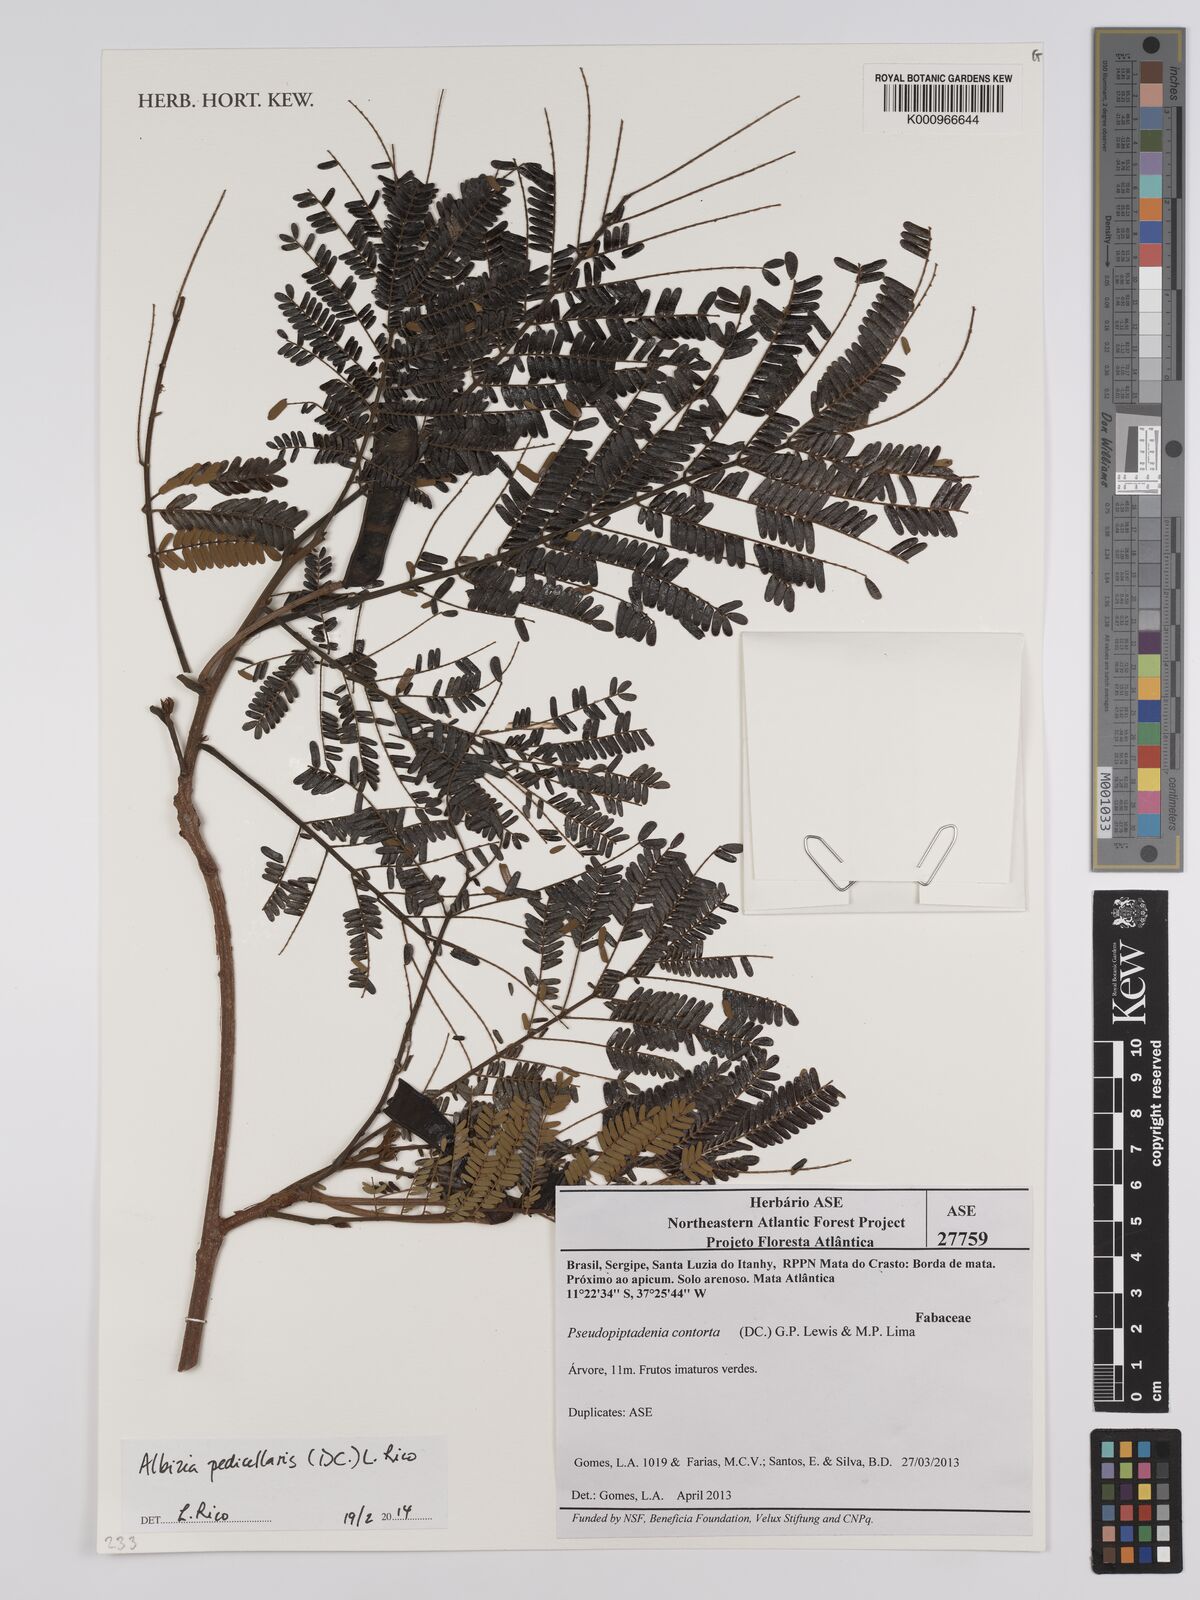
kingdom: Plantae
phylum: Tracheophyta
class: Magnoliopsida
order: Fabales
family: Fabaceae
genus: Balizia
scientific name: Balizia pedicellaris
